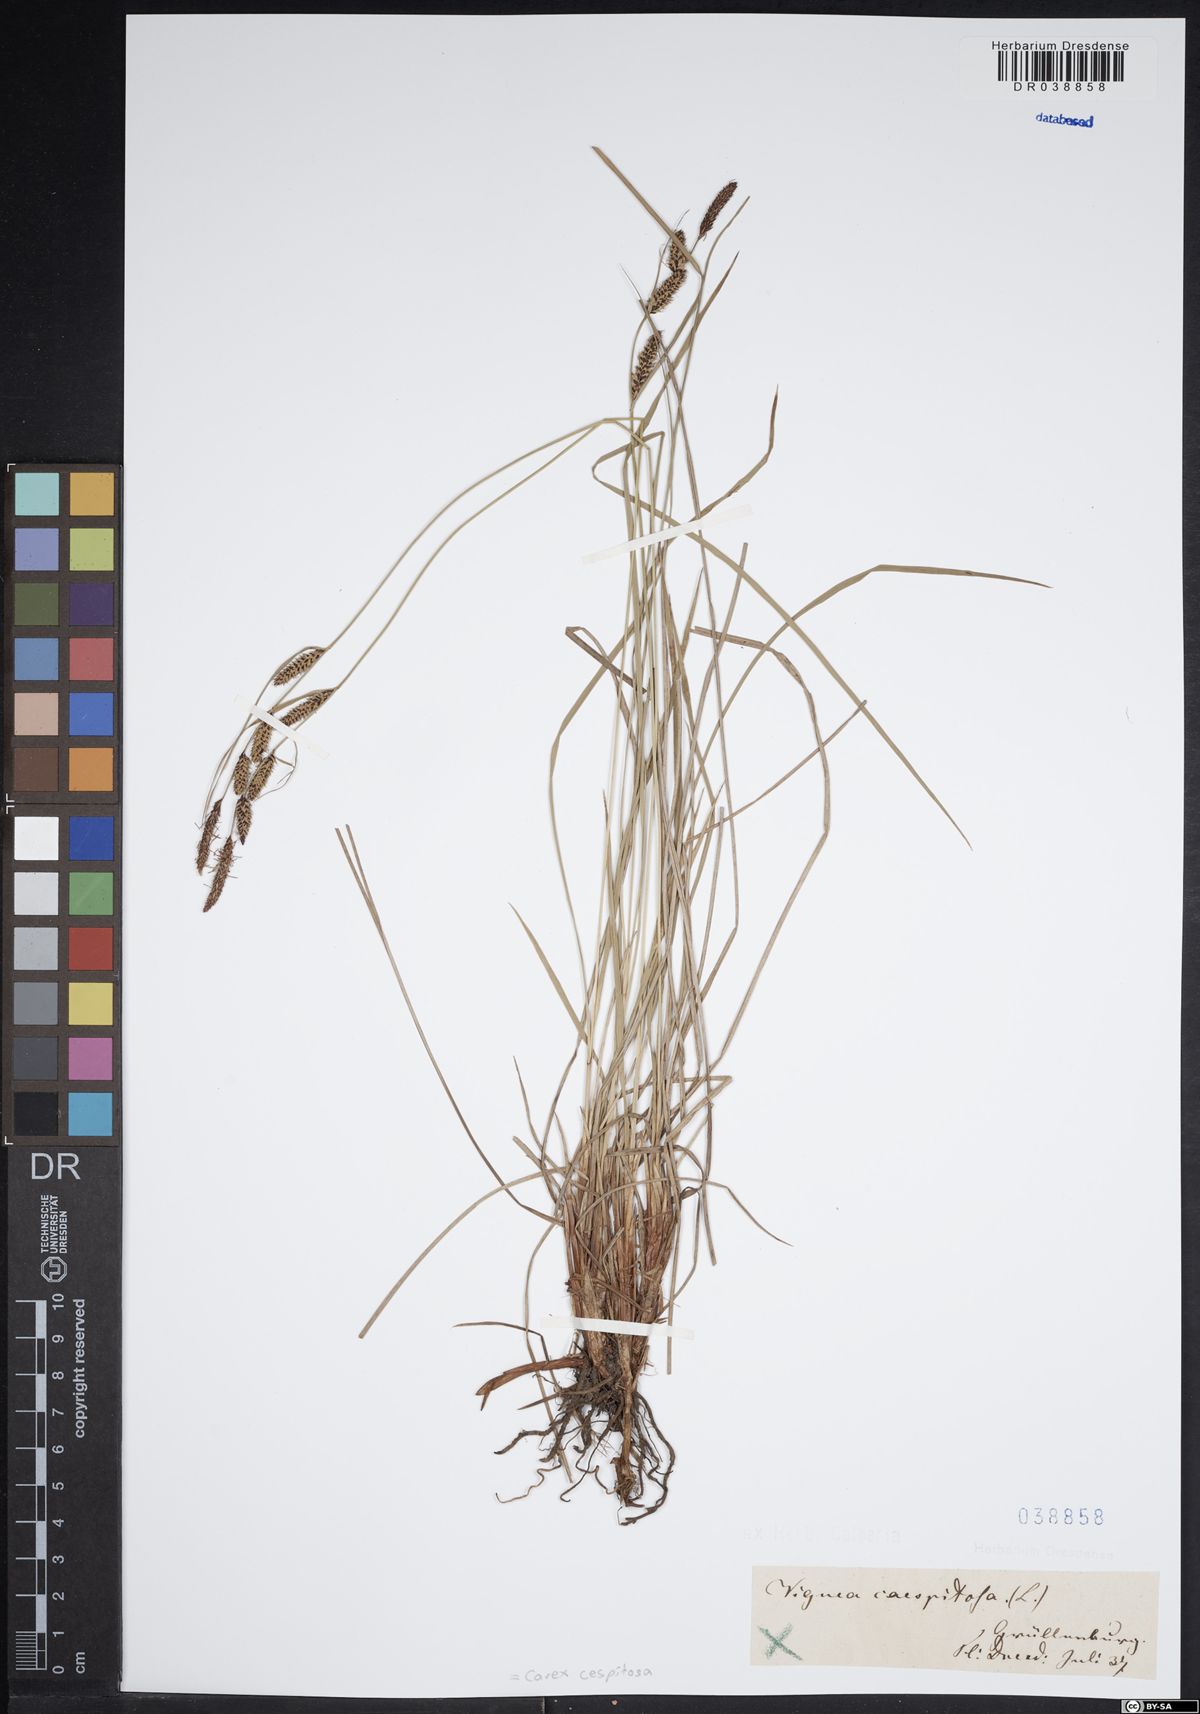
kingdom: Plantae
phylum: Tracheophyta
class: Liliopsida
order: Poales
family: Cyperaceae
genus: Carex
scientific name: Carex cespitosa
